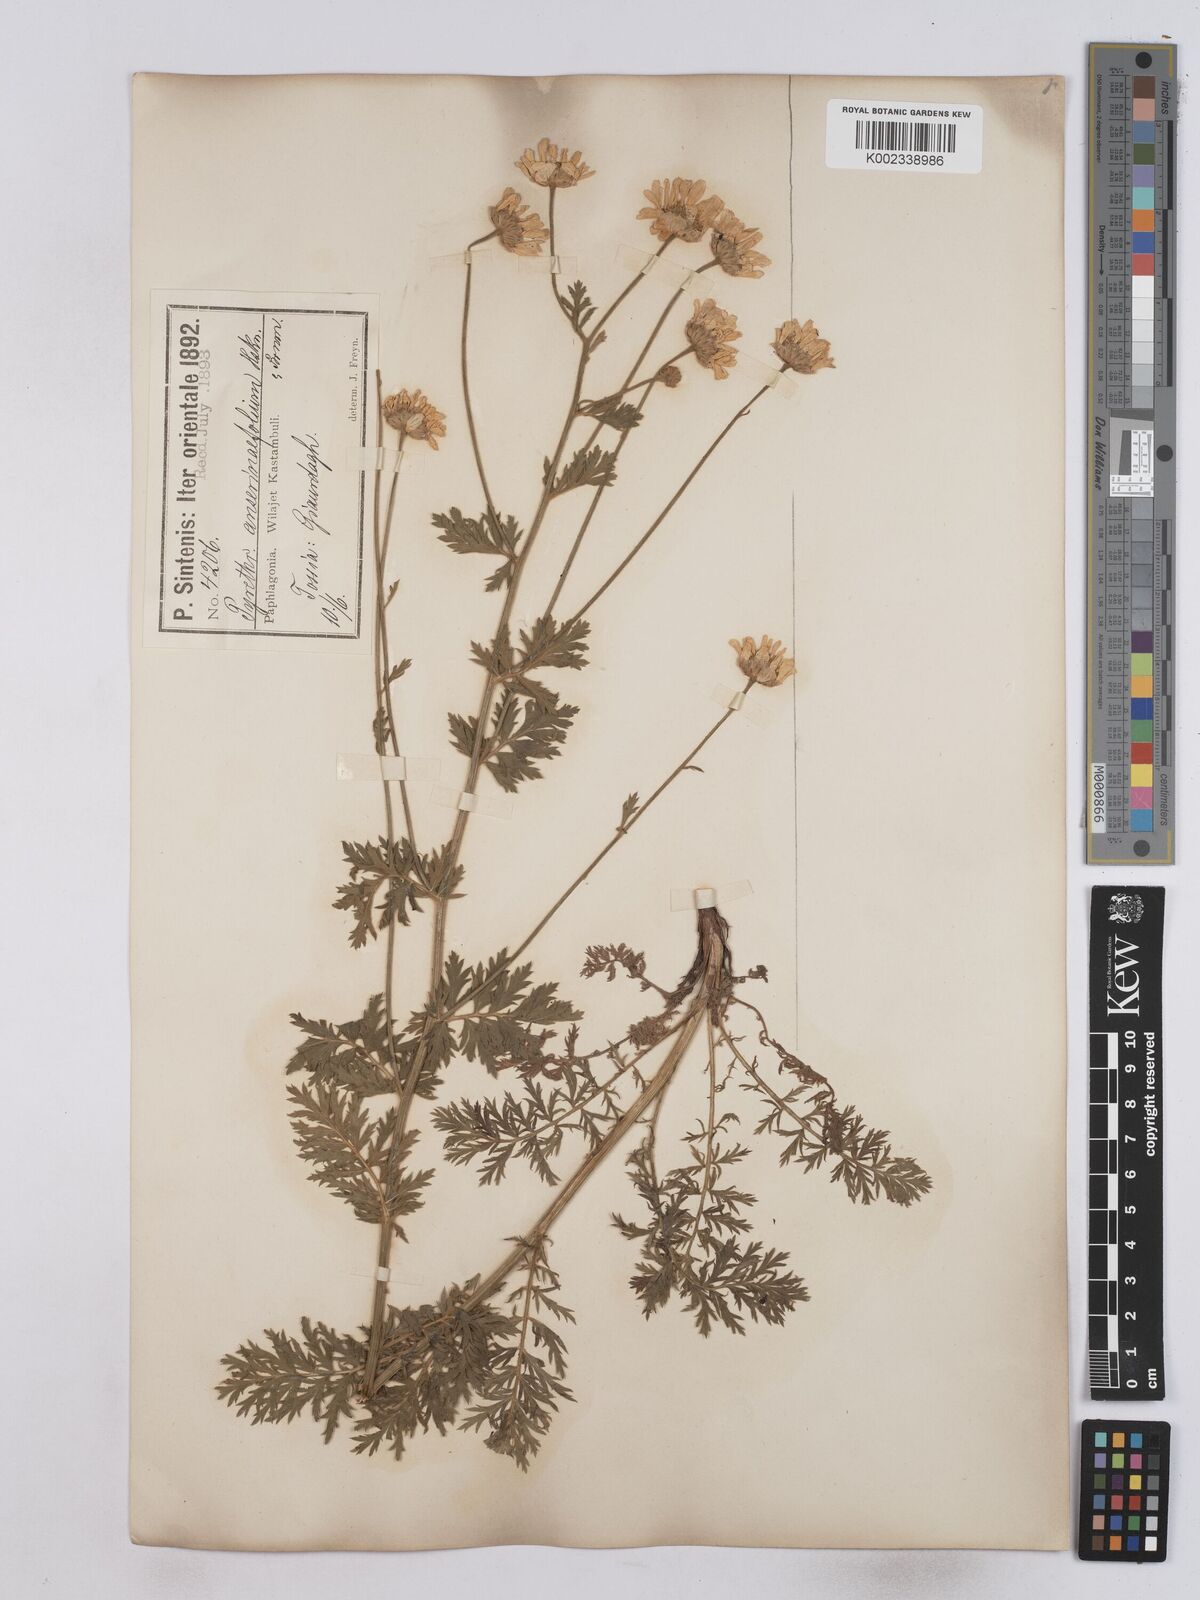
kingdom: Plantae
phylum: Tracheophyta
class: Magnoliopsida
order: Asterales
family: Asteraceae
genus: Tanacetum
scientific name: Tanacetum
